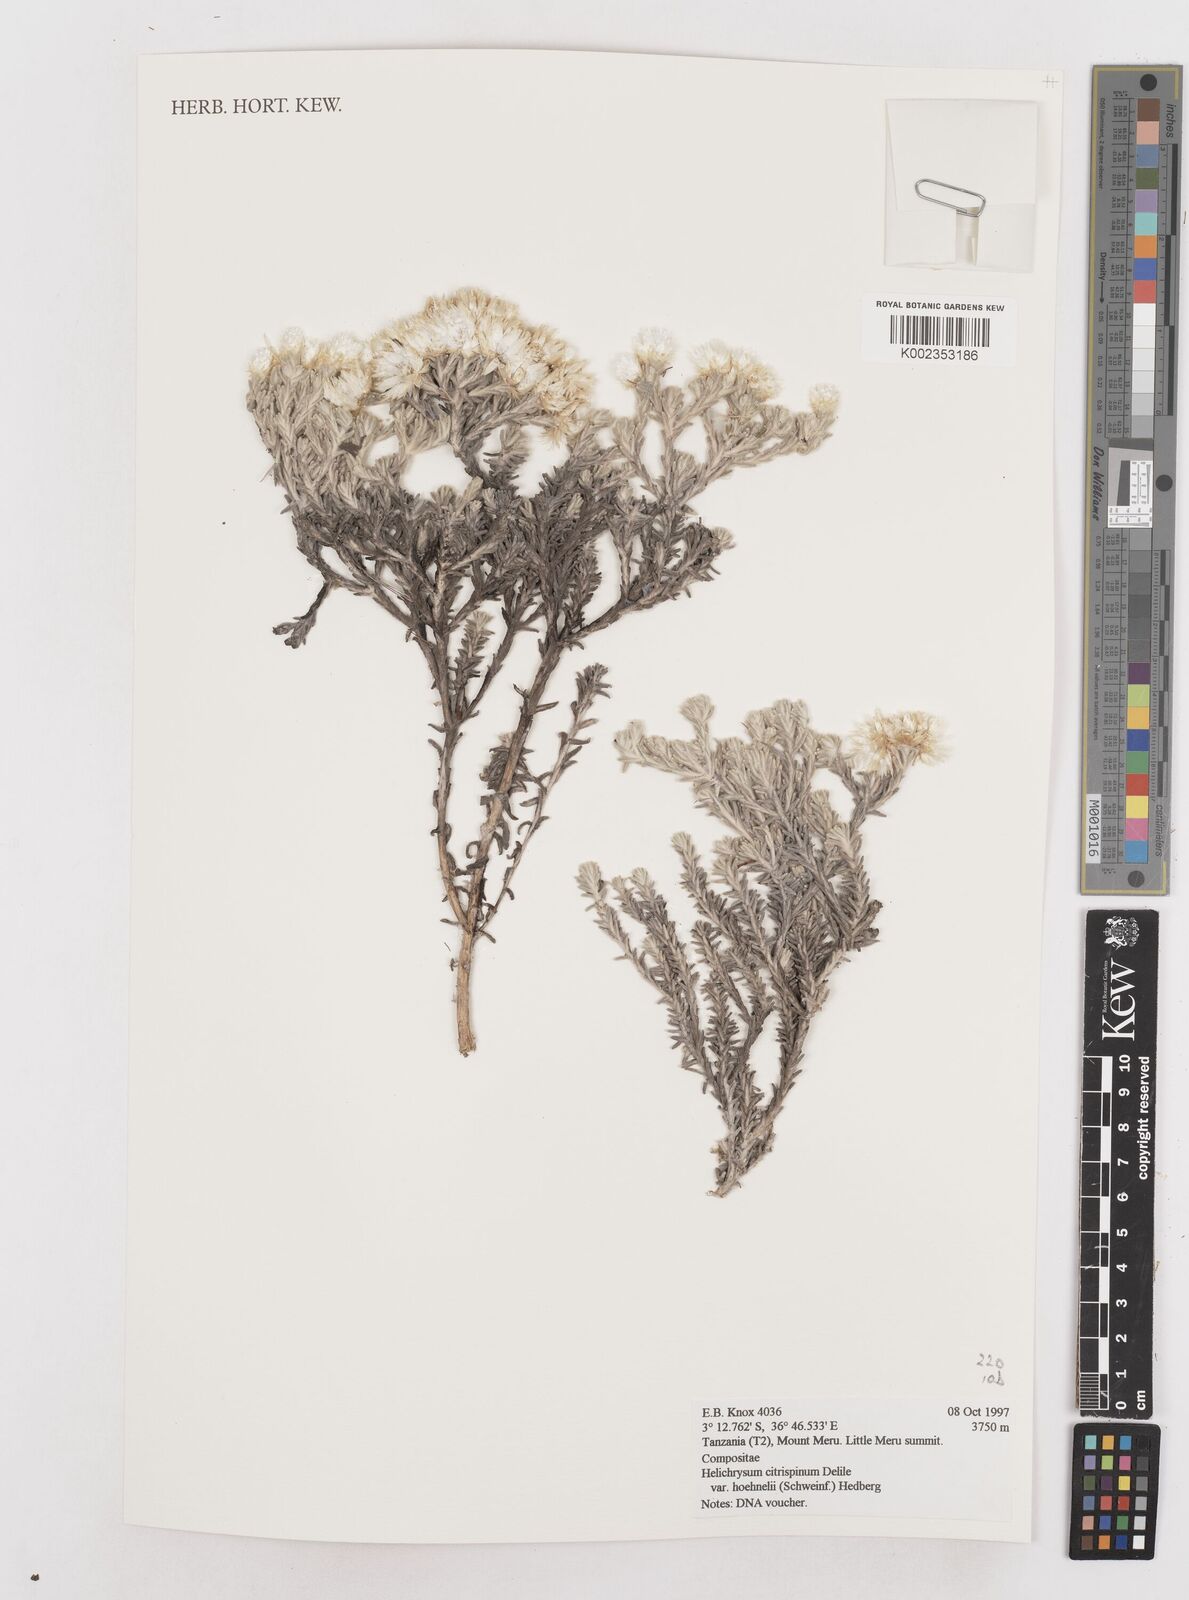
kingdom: Plantae
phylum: Tracheophyta
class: Magnoliopsida
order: Asterales
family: Asteraceae
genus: Helichrysum
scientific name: Helichrysum citrispinum
